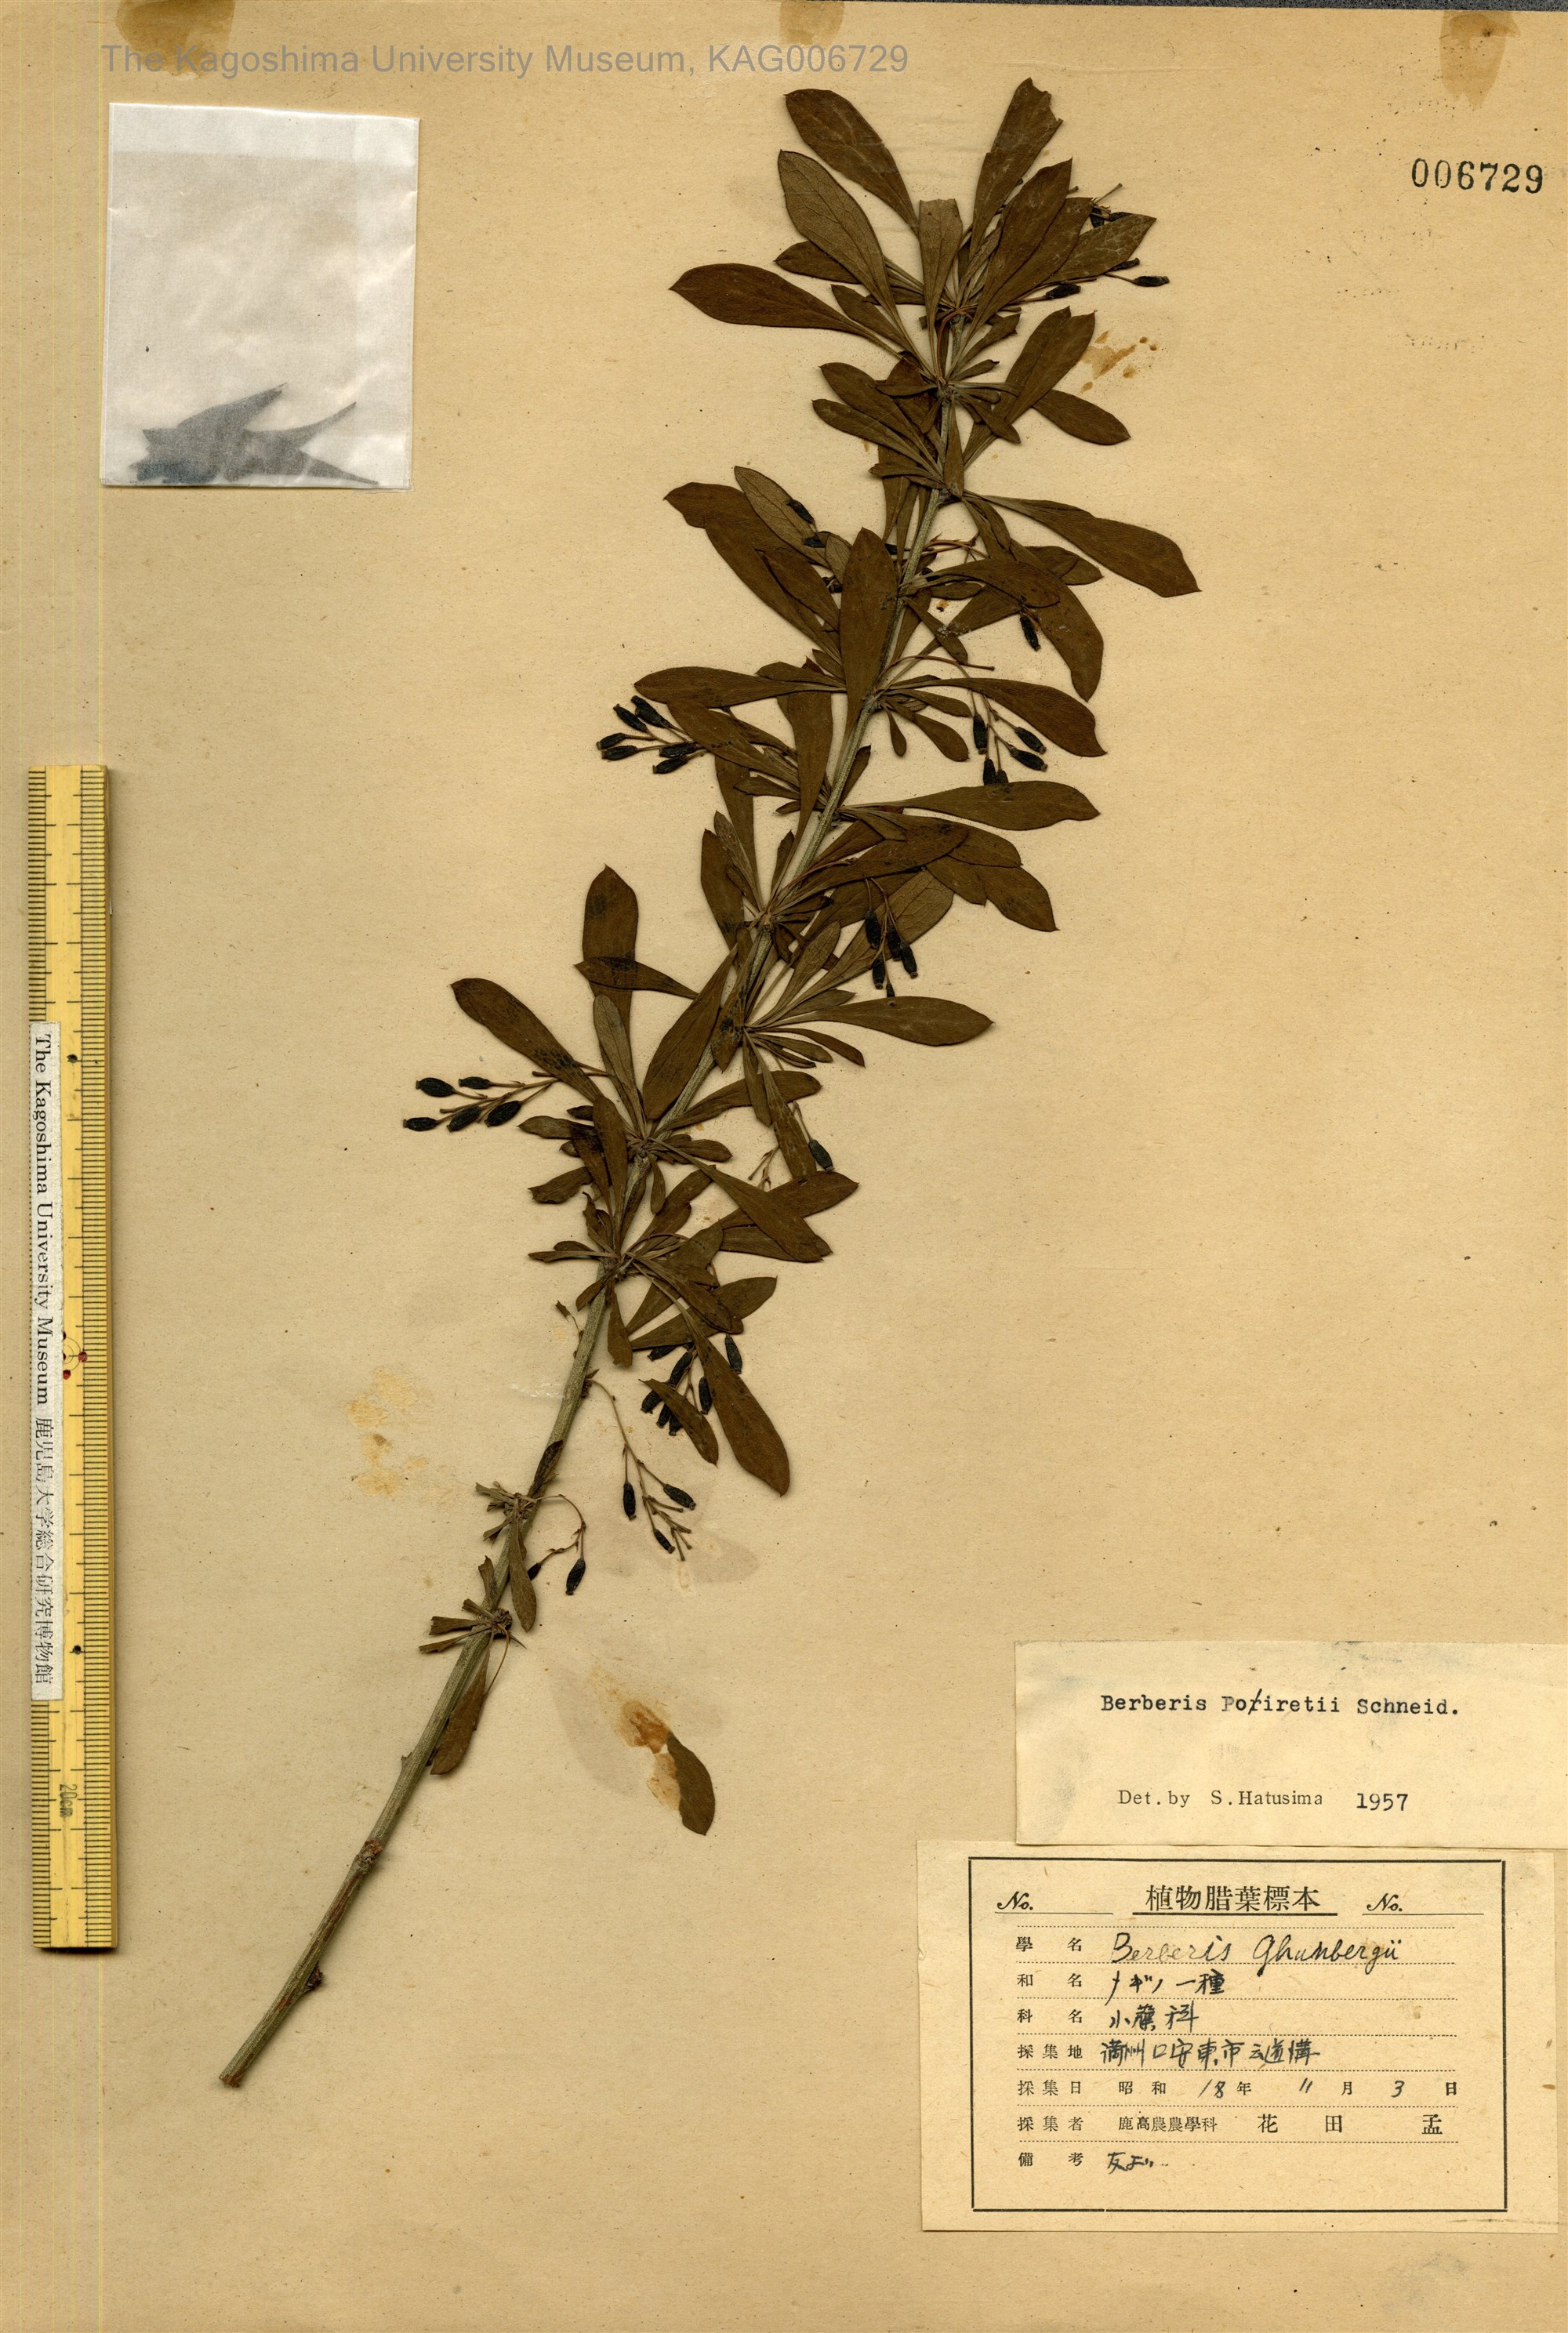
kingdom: Plantae
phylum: Tracheophyta
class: Magnoliopsida
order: Ranunculales
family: Berberidaceae
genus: Berberis
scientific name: Berberis chinensis
